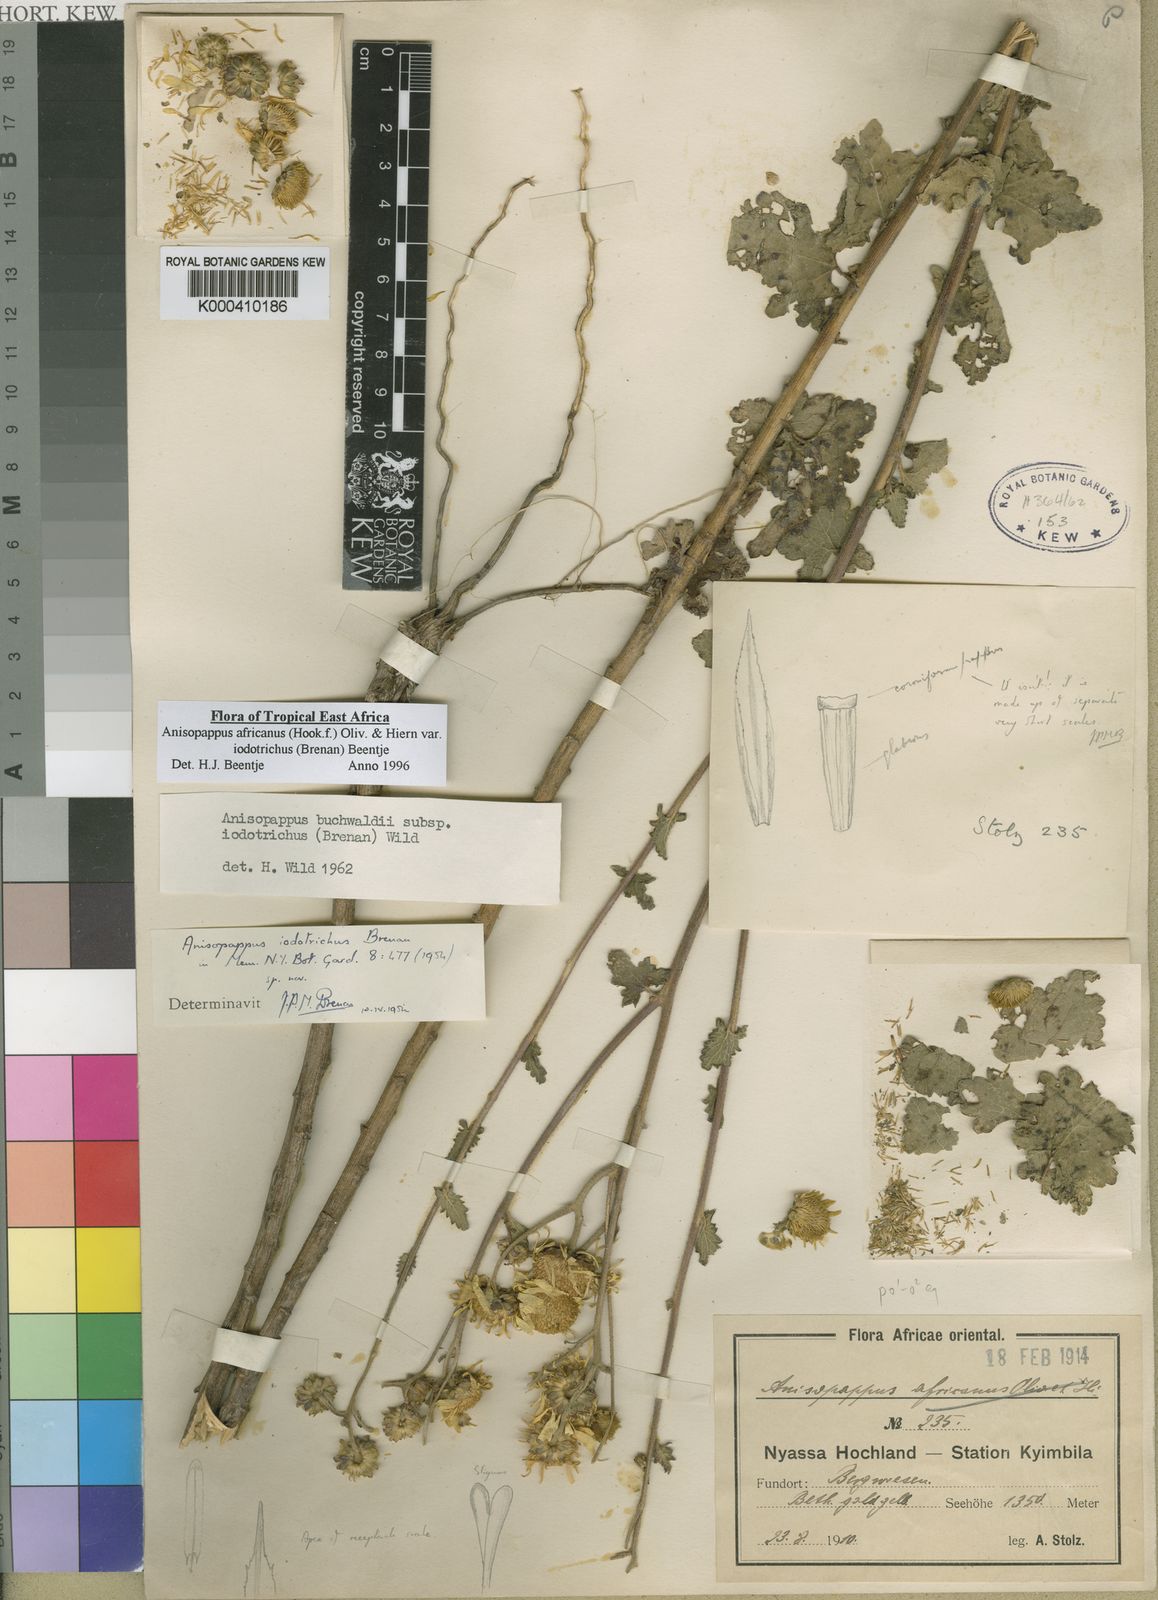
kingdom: Plantae
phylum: Tracheophyta
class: Magnoliopsida
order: Asterales
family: Asteraceae
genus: Anisopappus
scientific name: Anisopappus africanus
